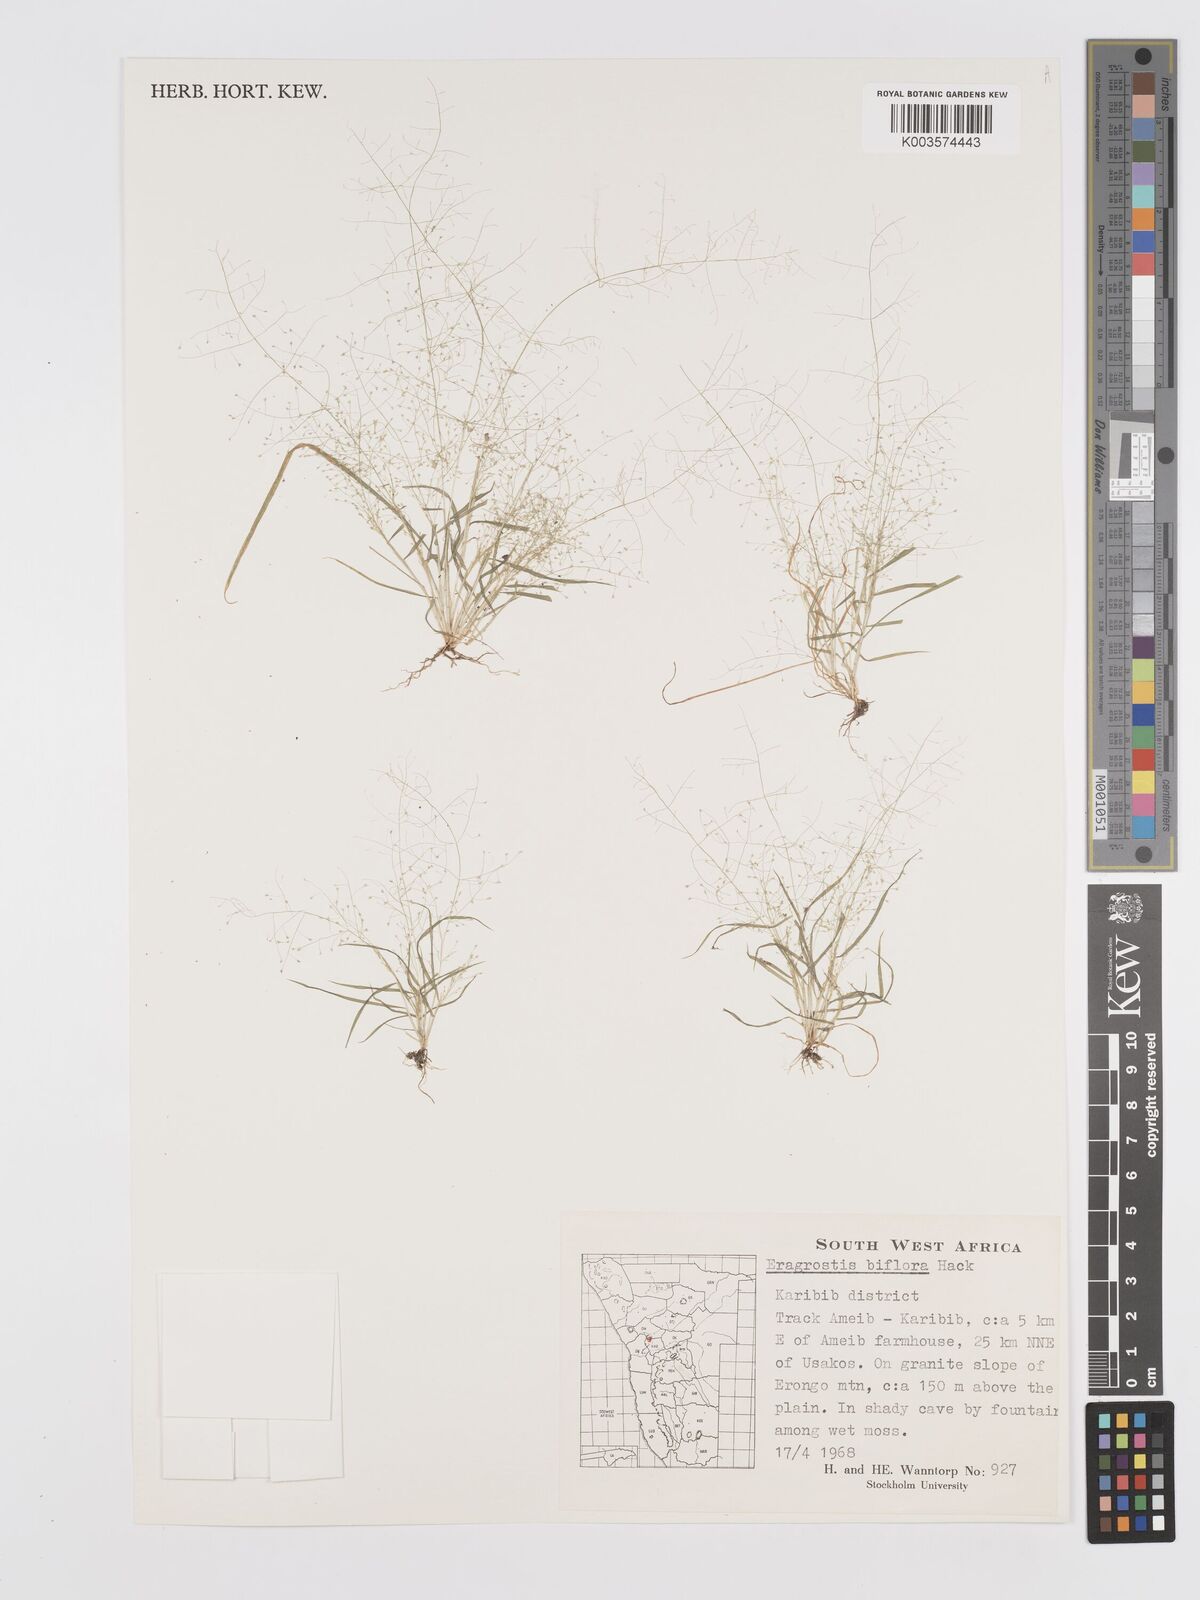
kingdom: Plantae
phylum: Tracheophyta
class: Liliopsida
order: Poales
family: Poaceae
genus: Eragrostis
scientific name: Eragrostis biflora
